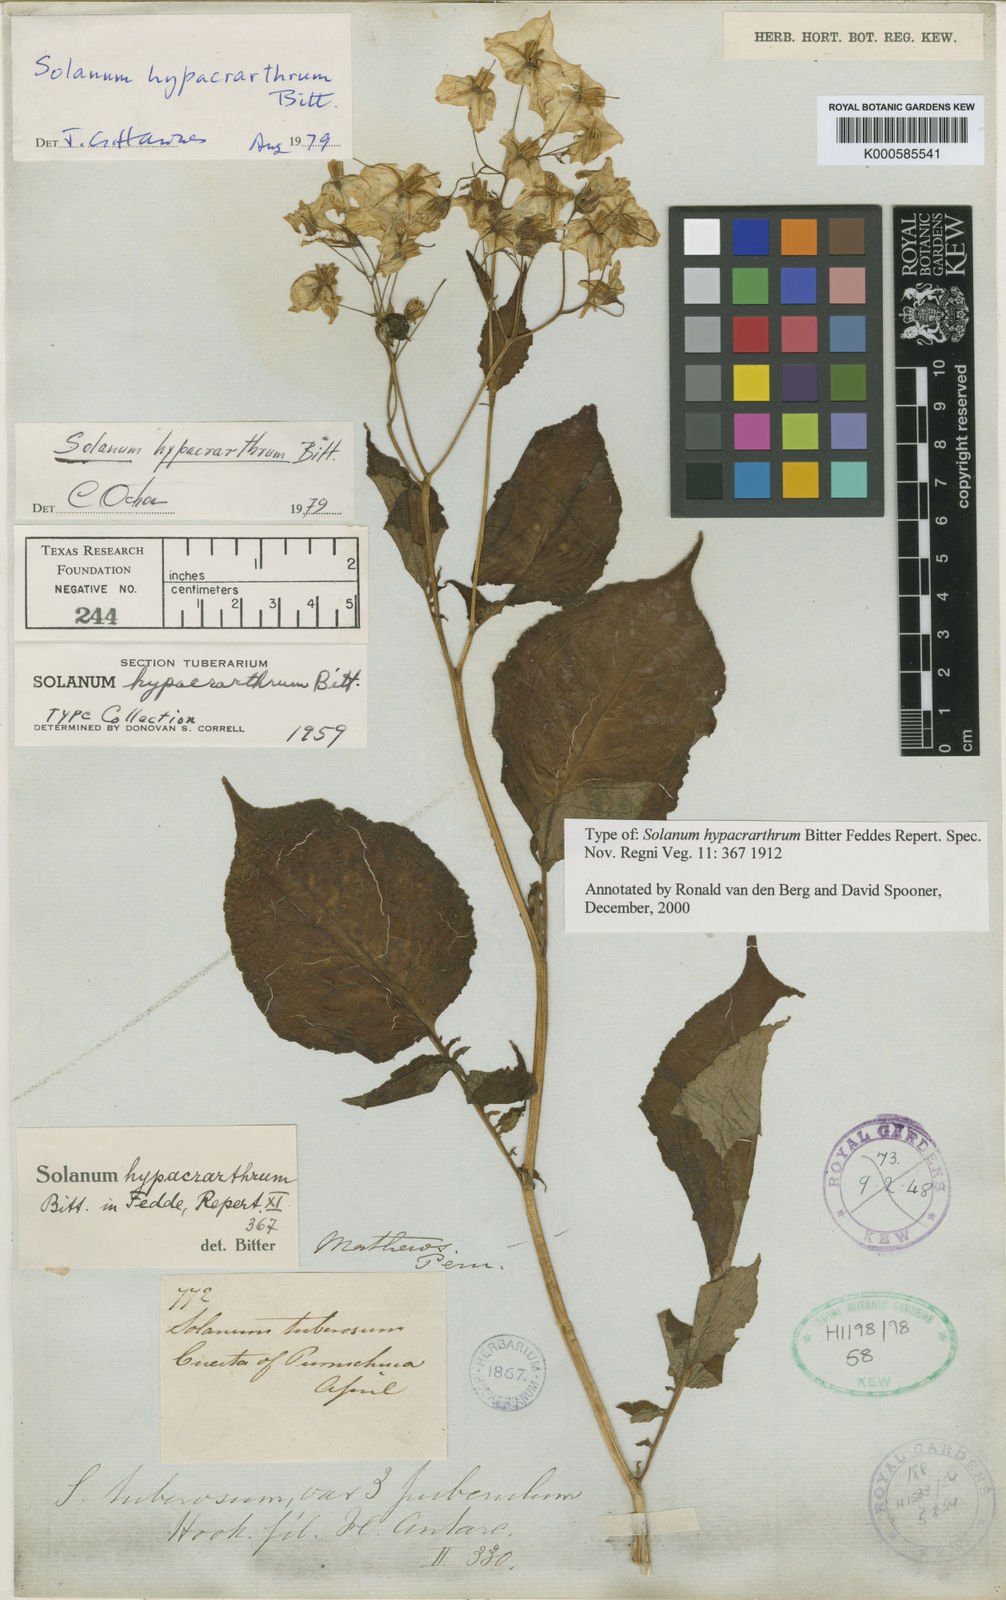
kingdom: Plantae
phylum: Tracheophyta
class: Magnoliopsida
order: Solanales
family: Solanaceae
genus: Solanum
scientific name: Solanum hypacrarthrum
